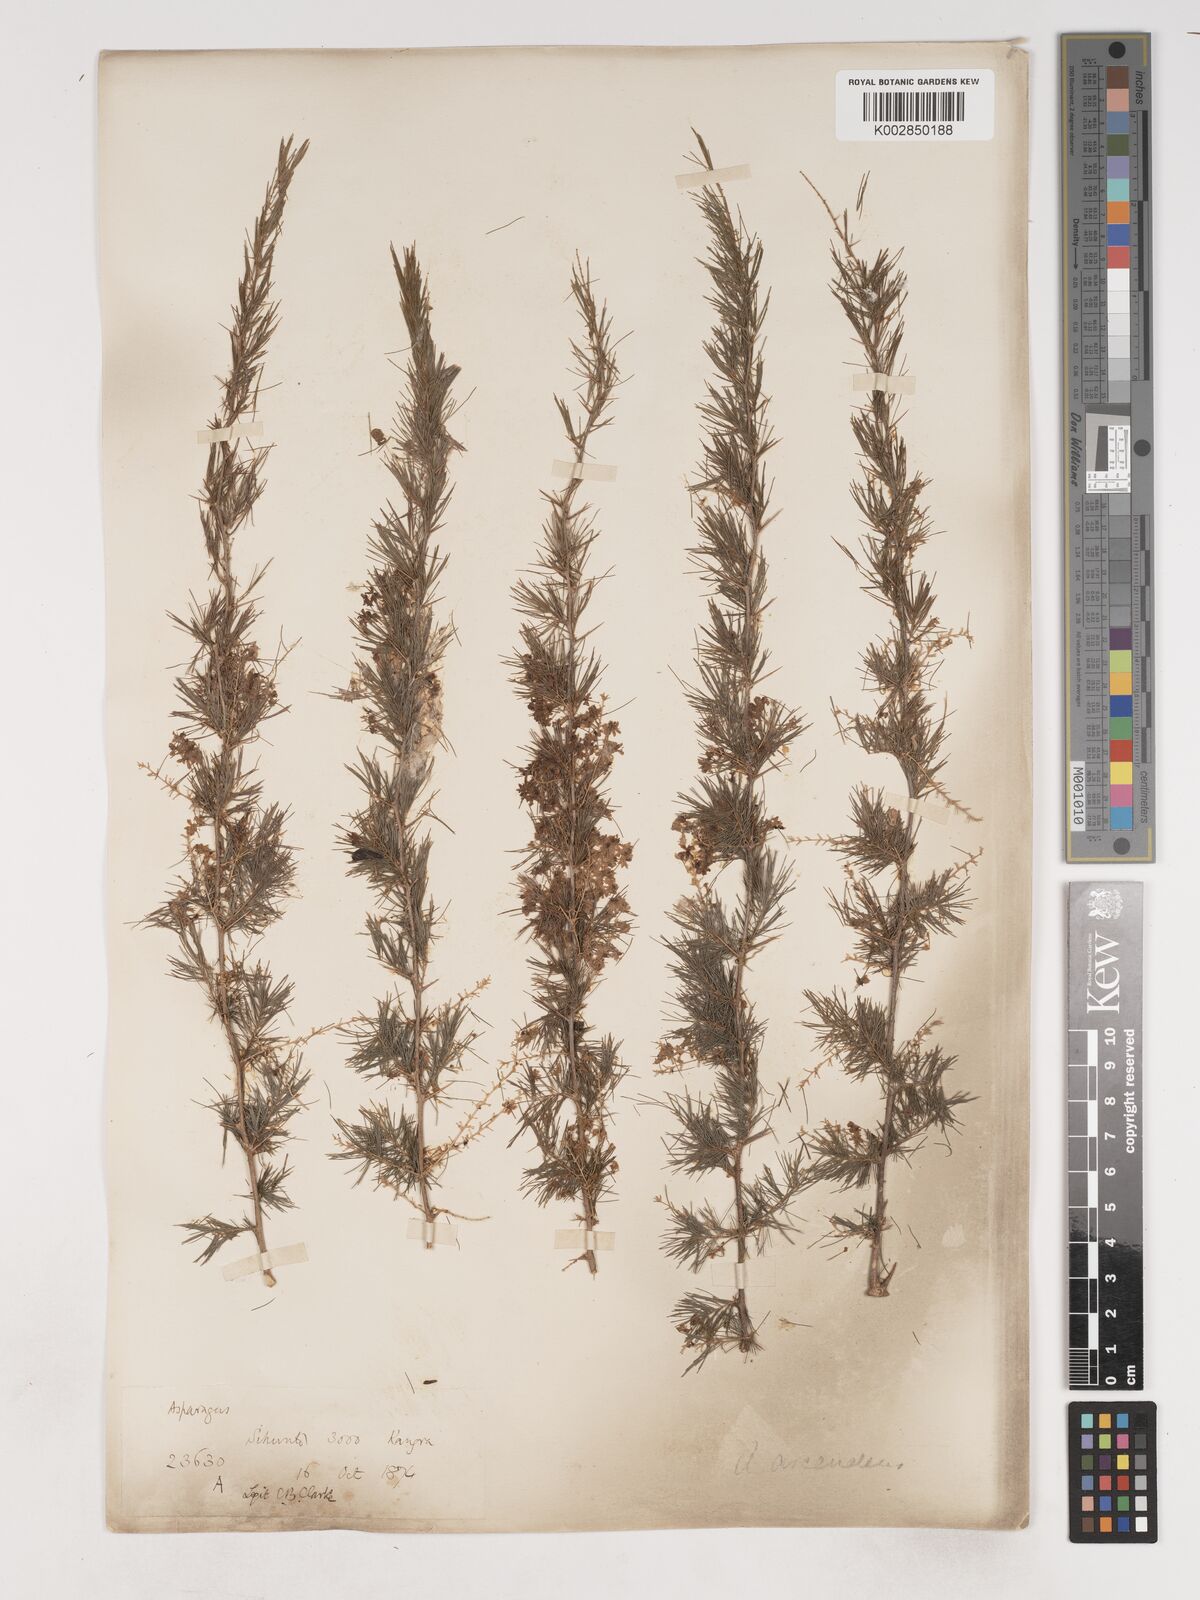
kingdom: Plantae
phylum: Tracheophyta
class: Liliopsida
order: Asparagales
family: Asparagaceae
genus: Asparagus
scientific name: Asparagus adscendens
